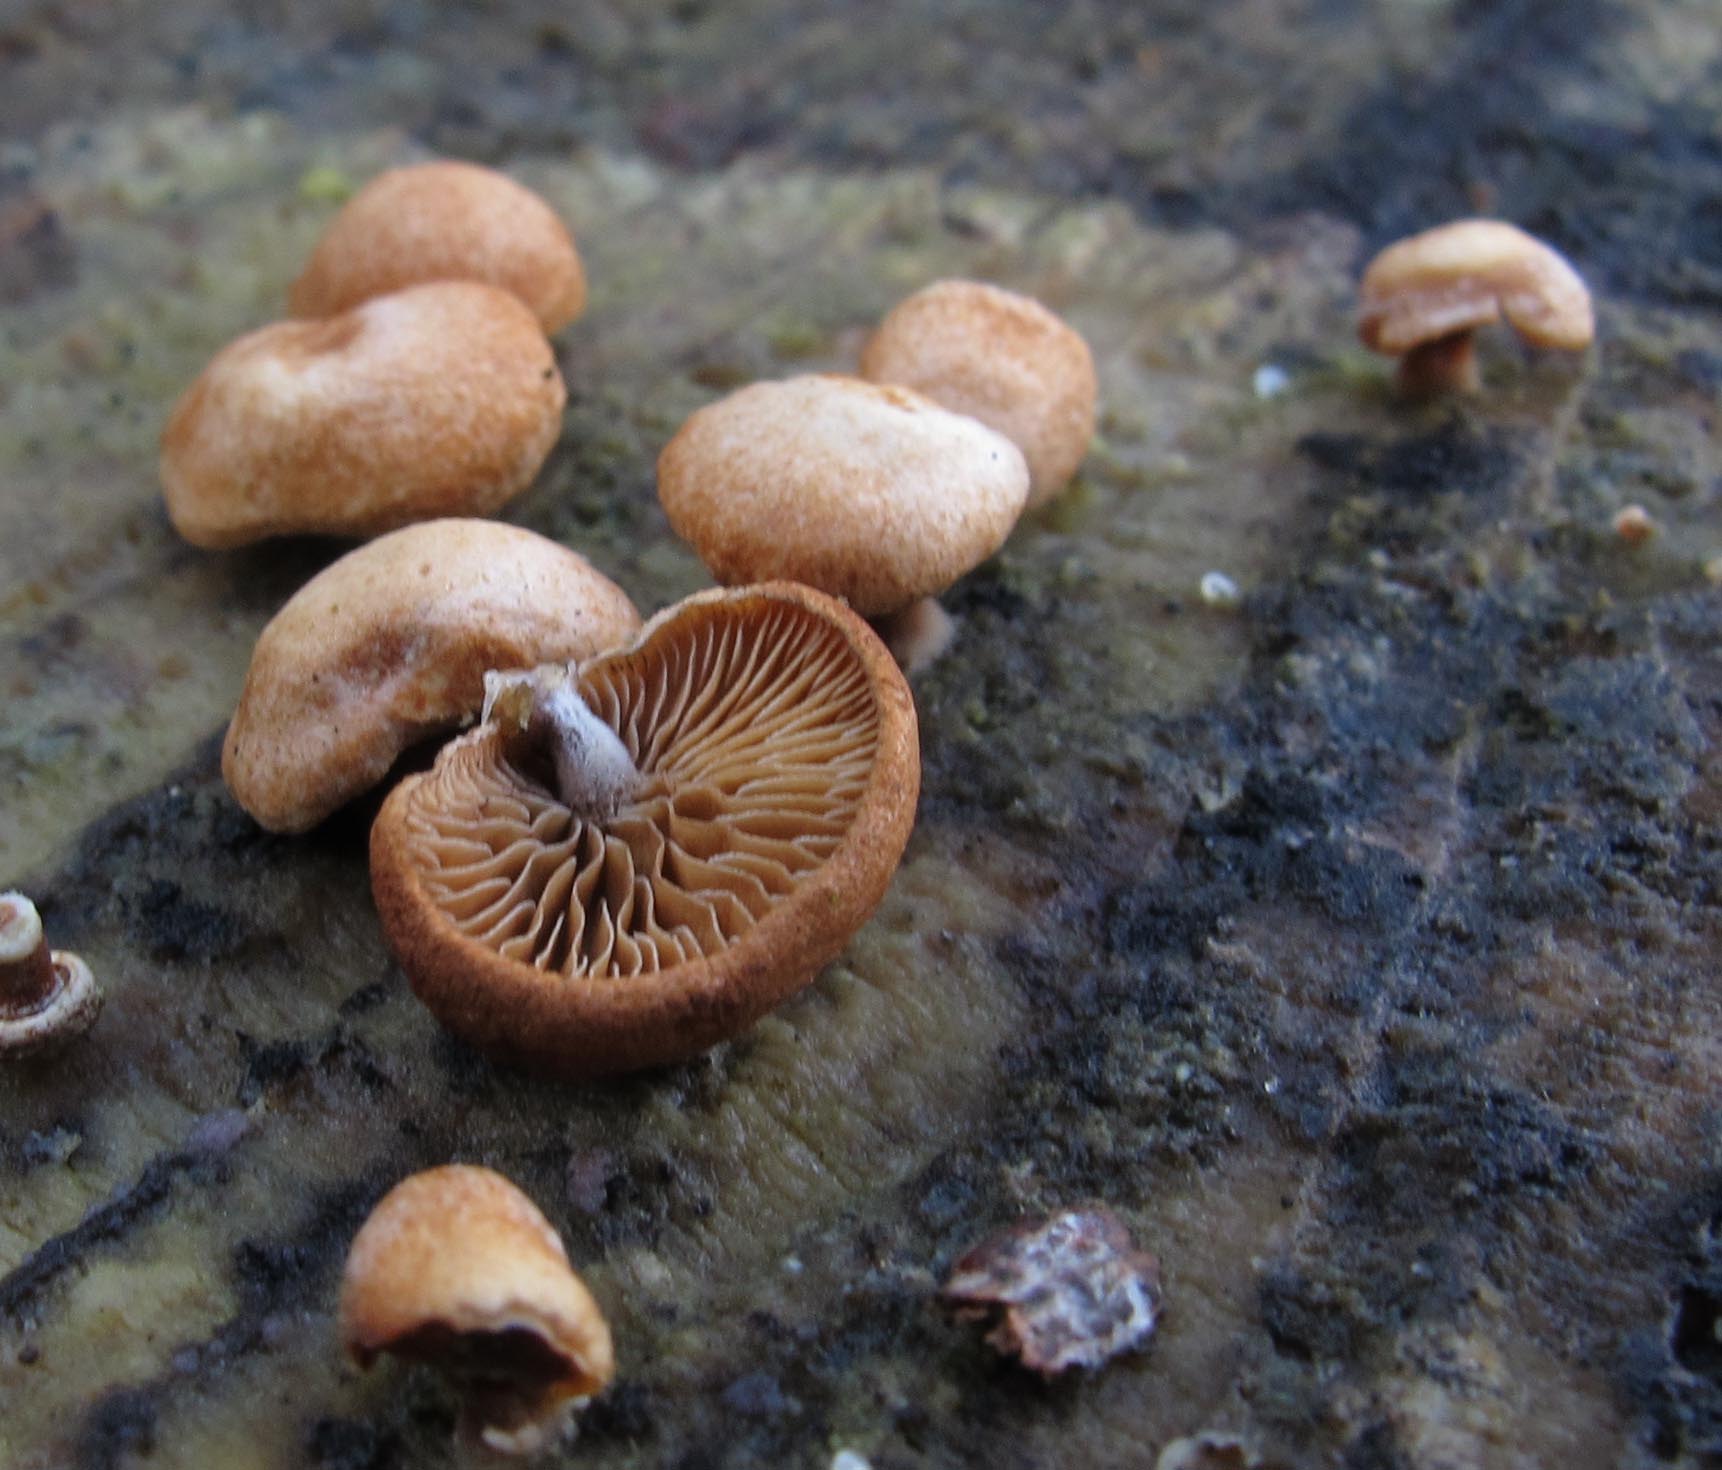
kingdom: Fungi
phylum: Basidiomycota
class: Agaricomycetes
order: Agaricales
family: Strophariaceae
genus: Deconica
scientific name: Deconica horizontalis
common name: ved-stråhat
